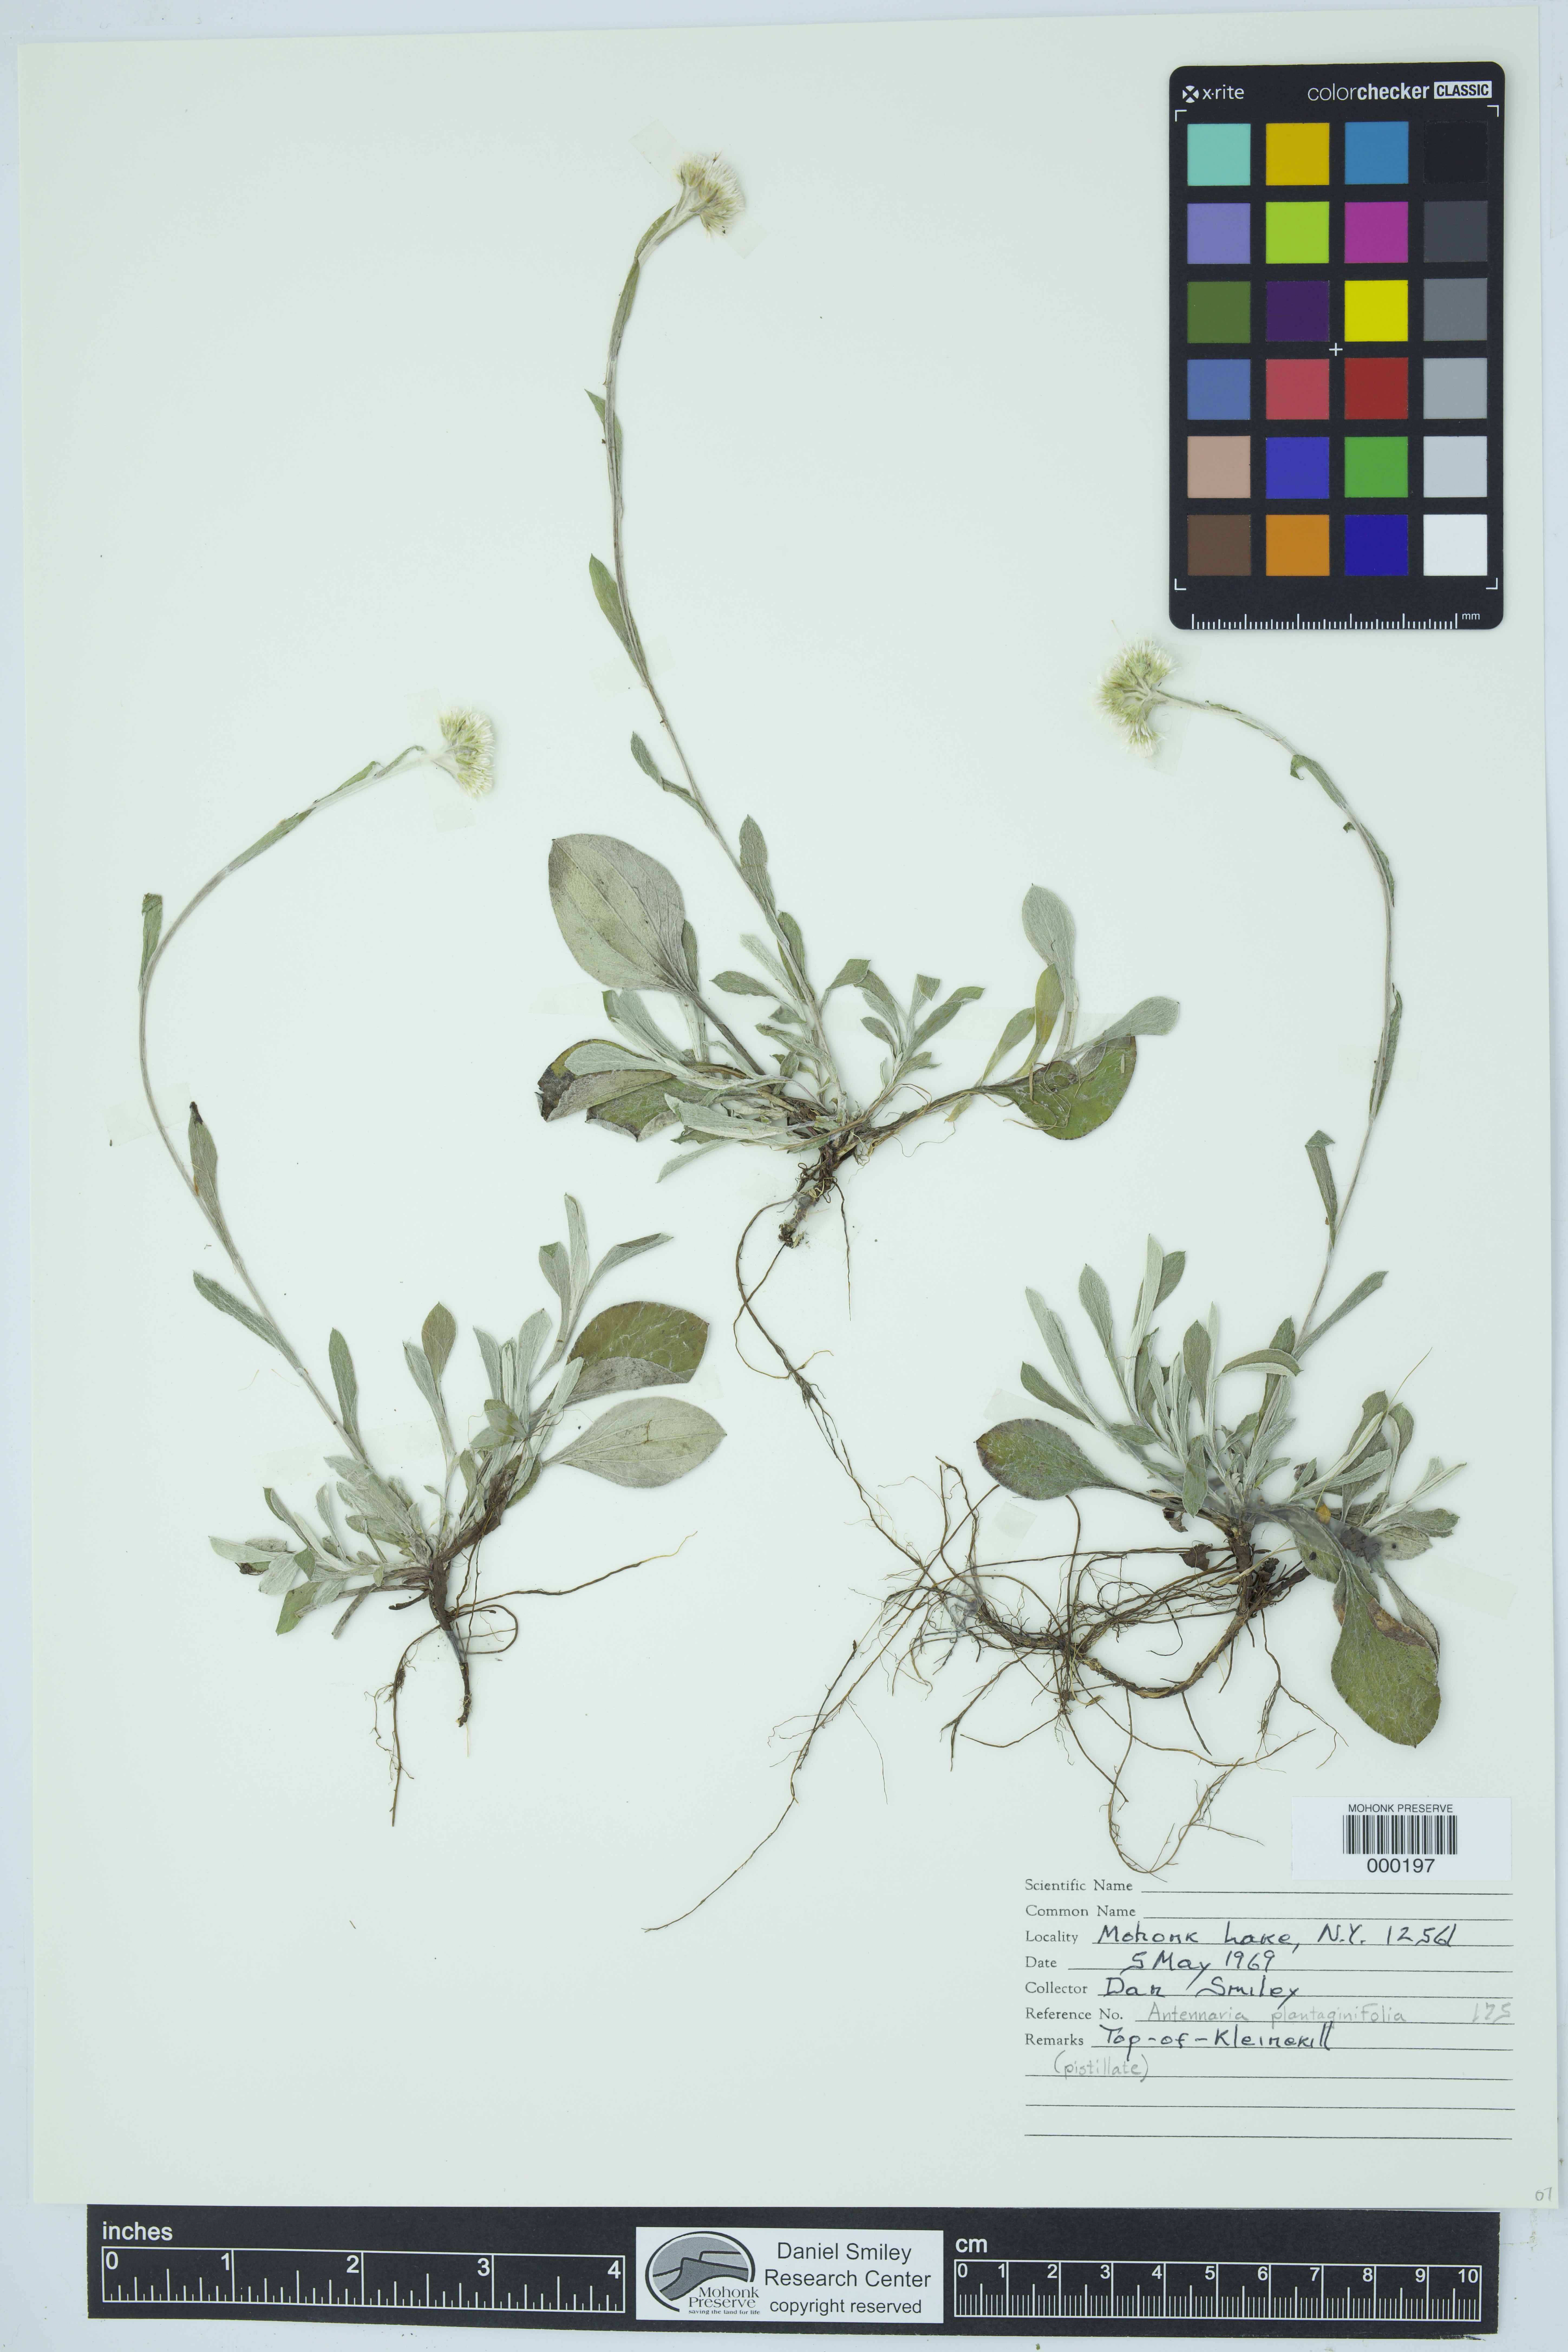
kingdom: Plantae
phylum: Tracheophyta
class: Magnoliopsida
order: Asterales
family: Asteraceae
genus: Antennaria
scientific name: Antennaria plantaginifolia
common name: Plantain-leaved pussytoes
